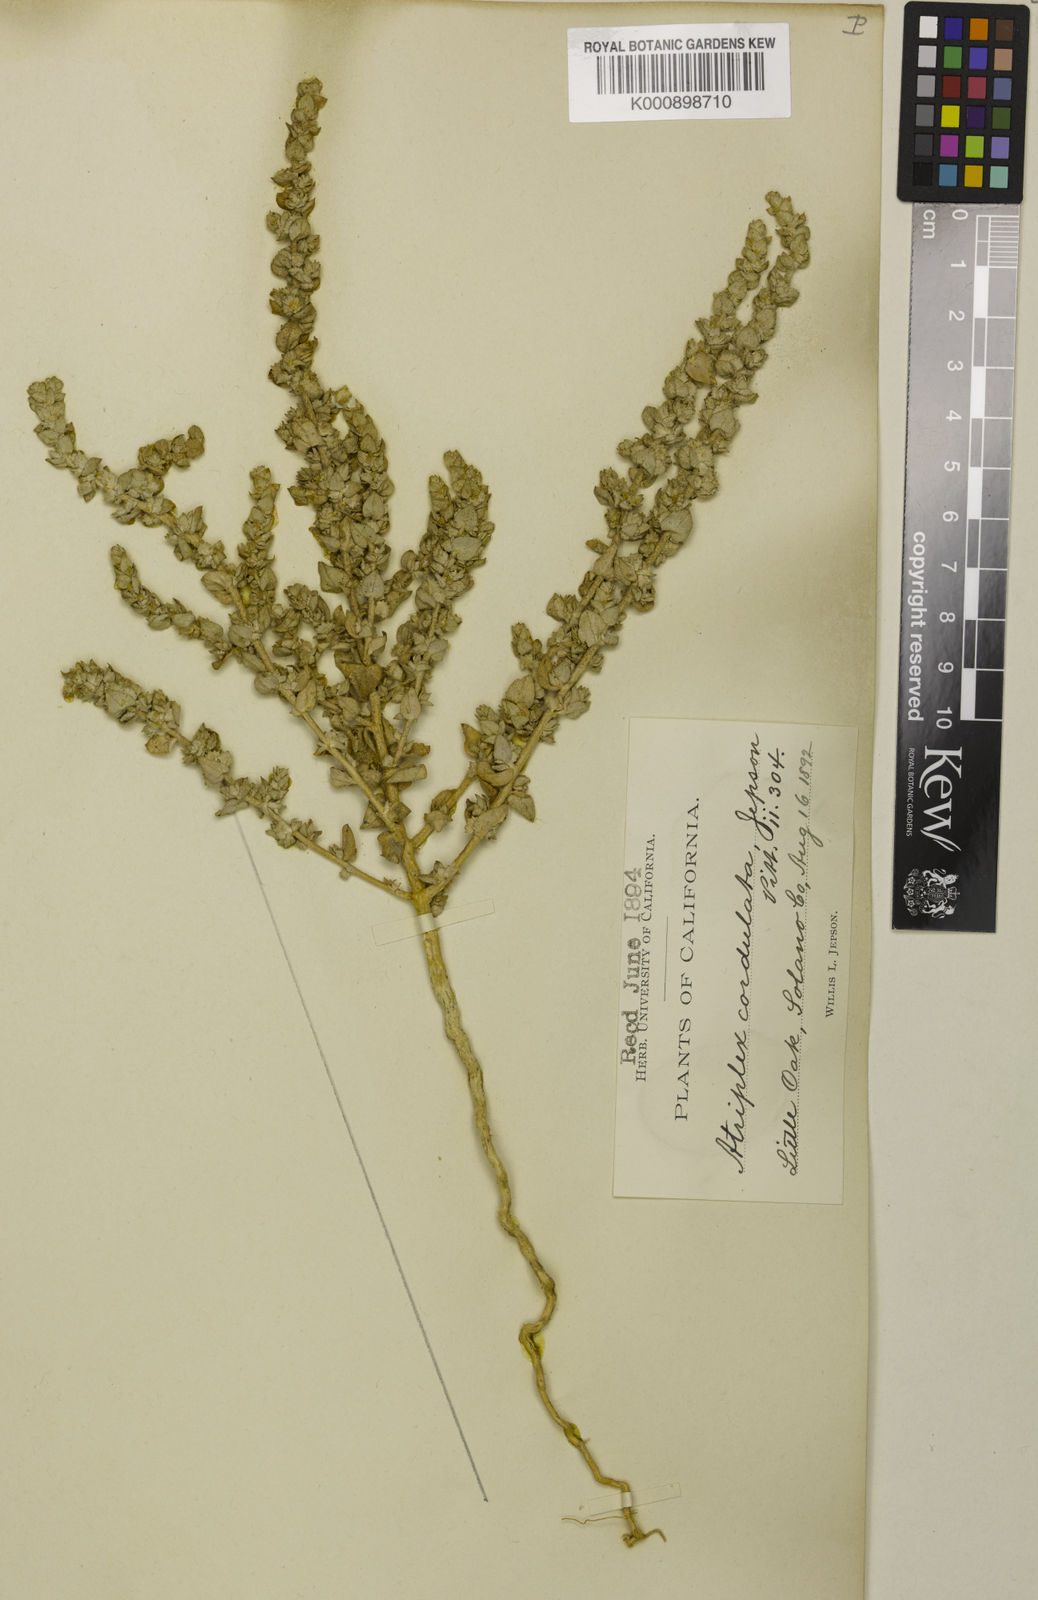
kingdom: Plantae
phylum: Tracheophyta
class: Magnoliopsida
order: Caryophyllales
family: Amaranthaceae
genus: Atriplex
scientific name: Atriplex cordulata
